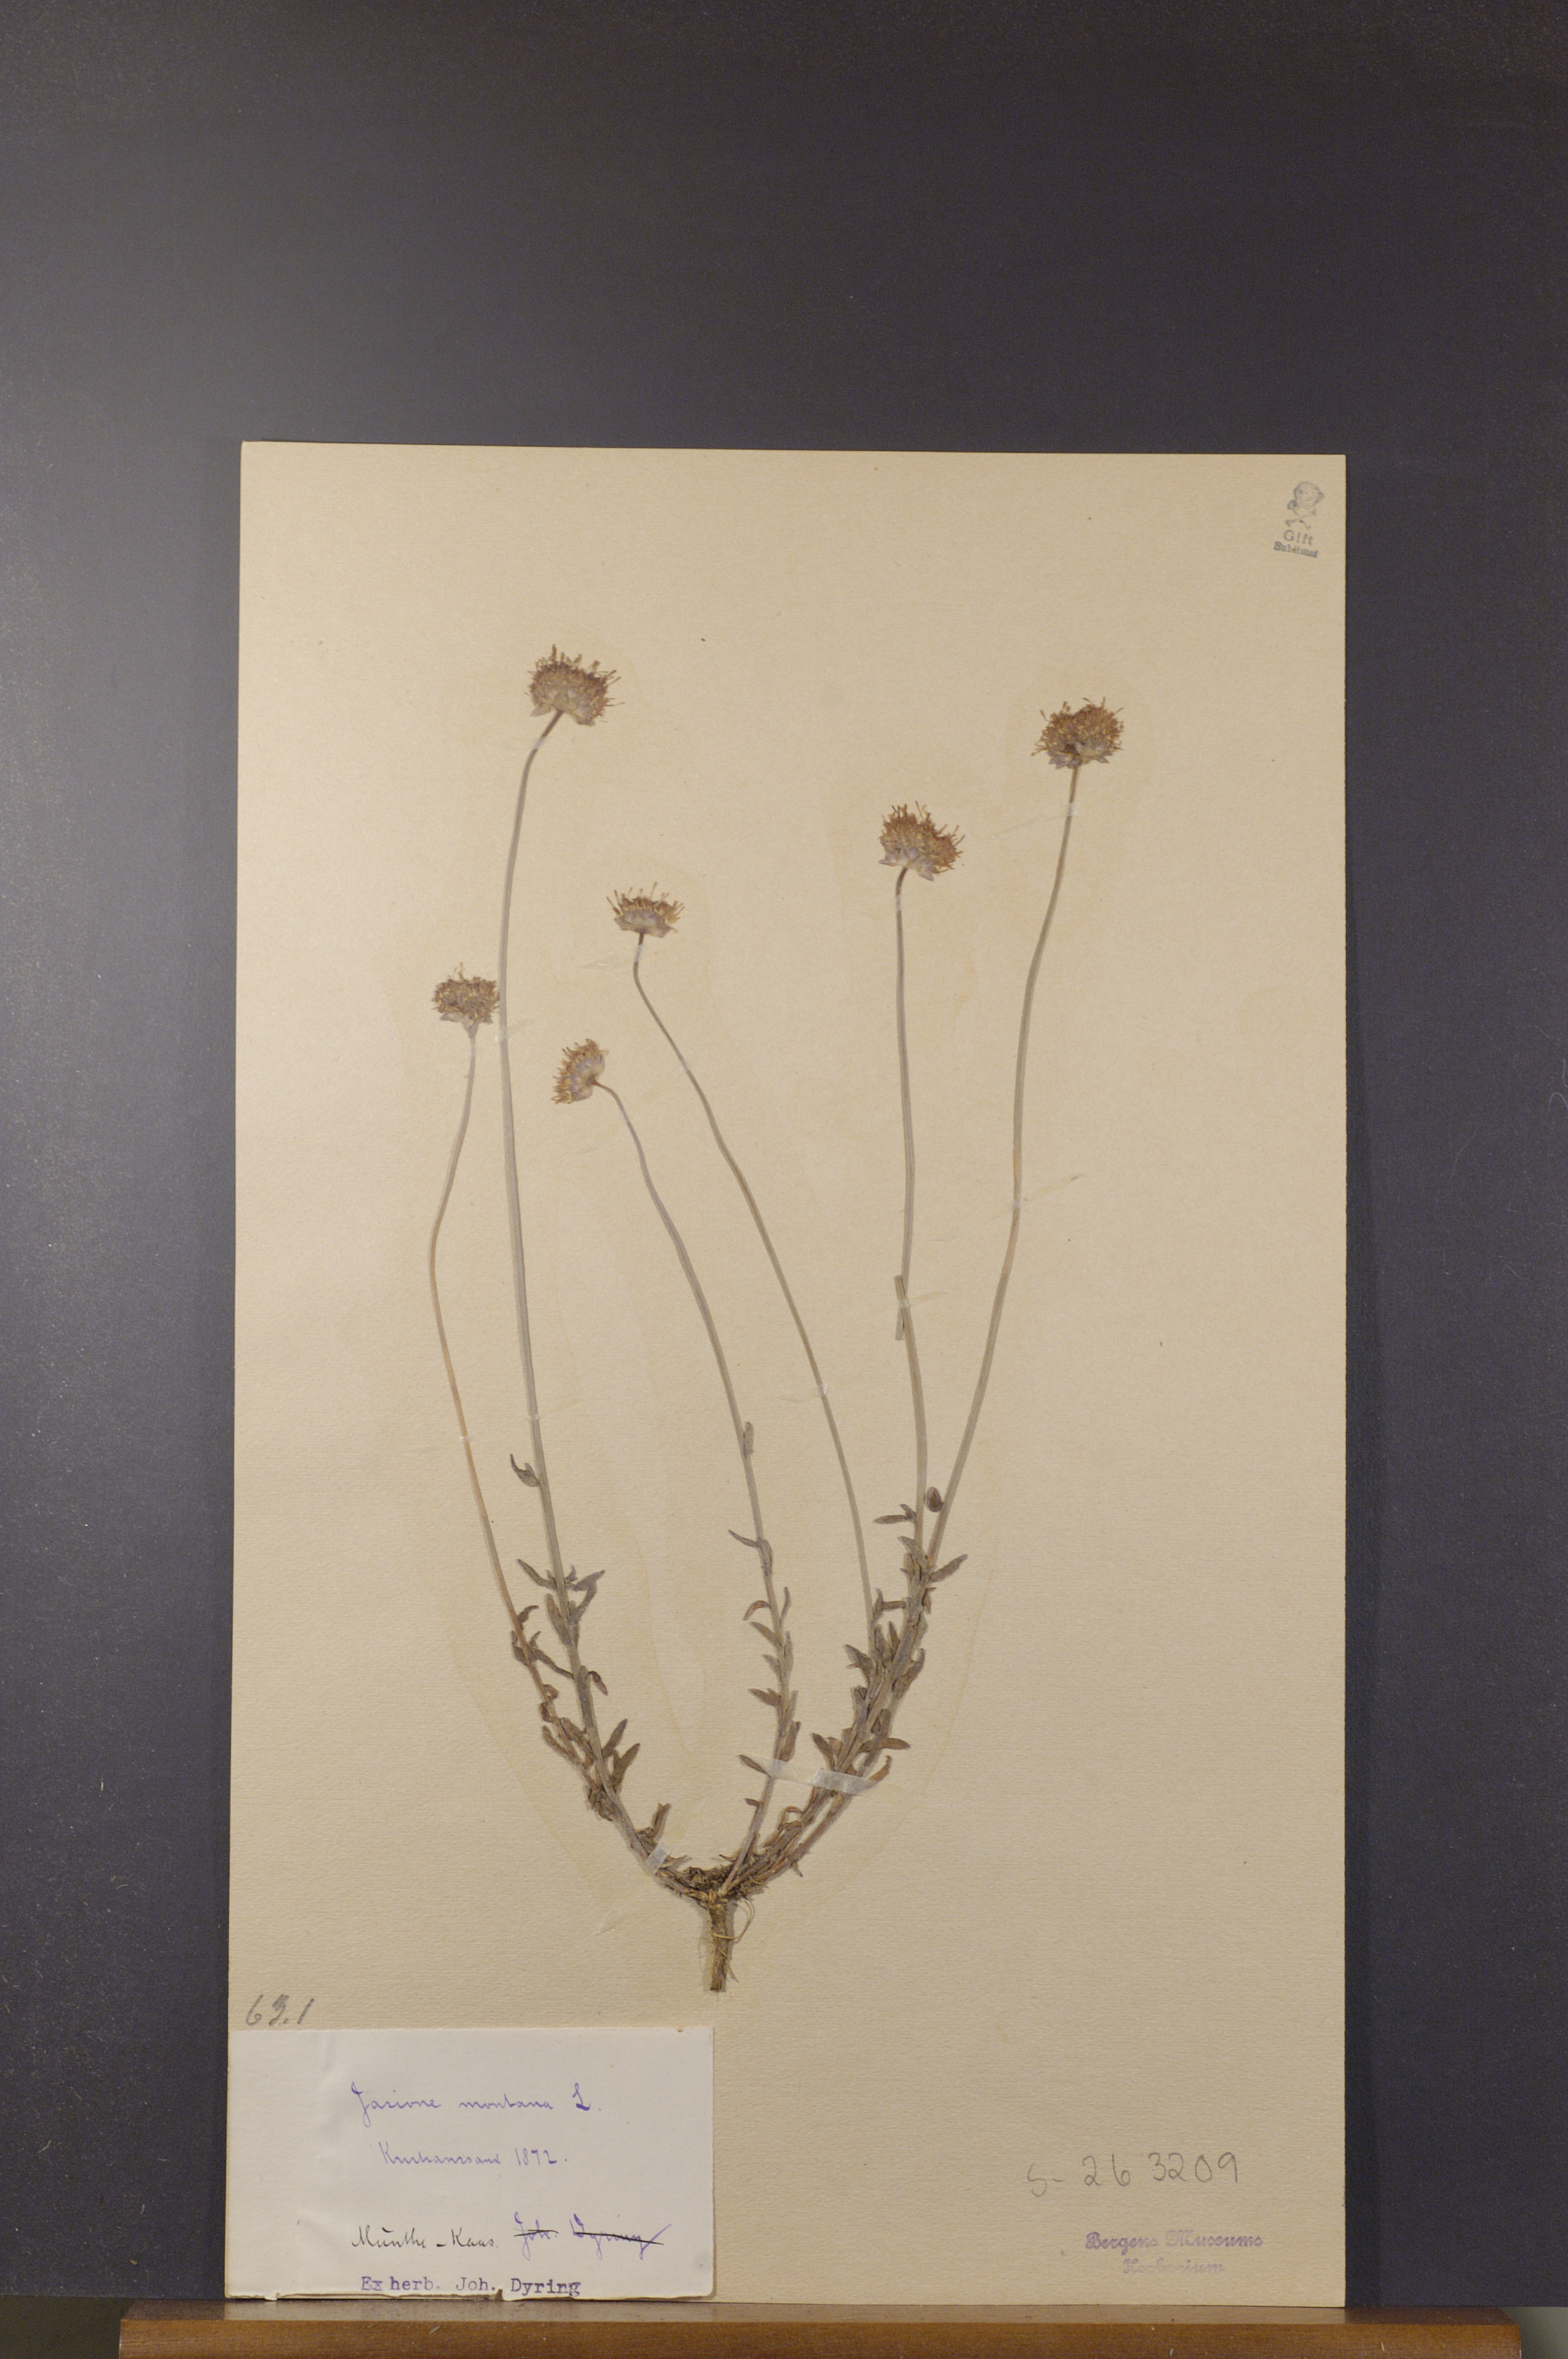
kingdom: Plantae
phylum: Tracheophyta
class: Magnoliopsida
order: Asterales
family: Campanulaceae
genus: Jasione
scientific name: Jasione montana
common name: Sheep's-bit
